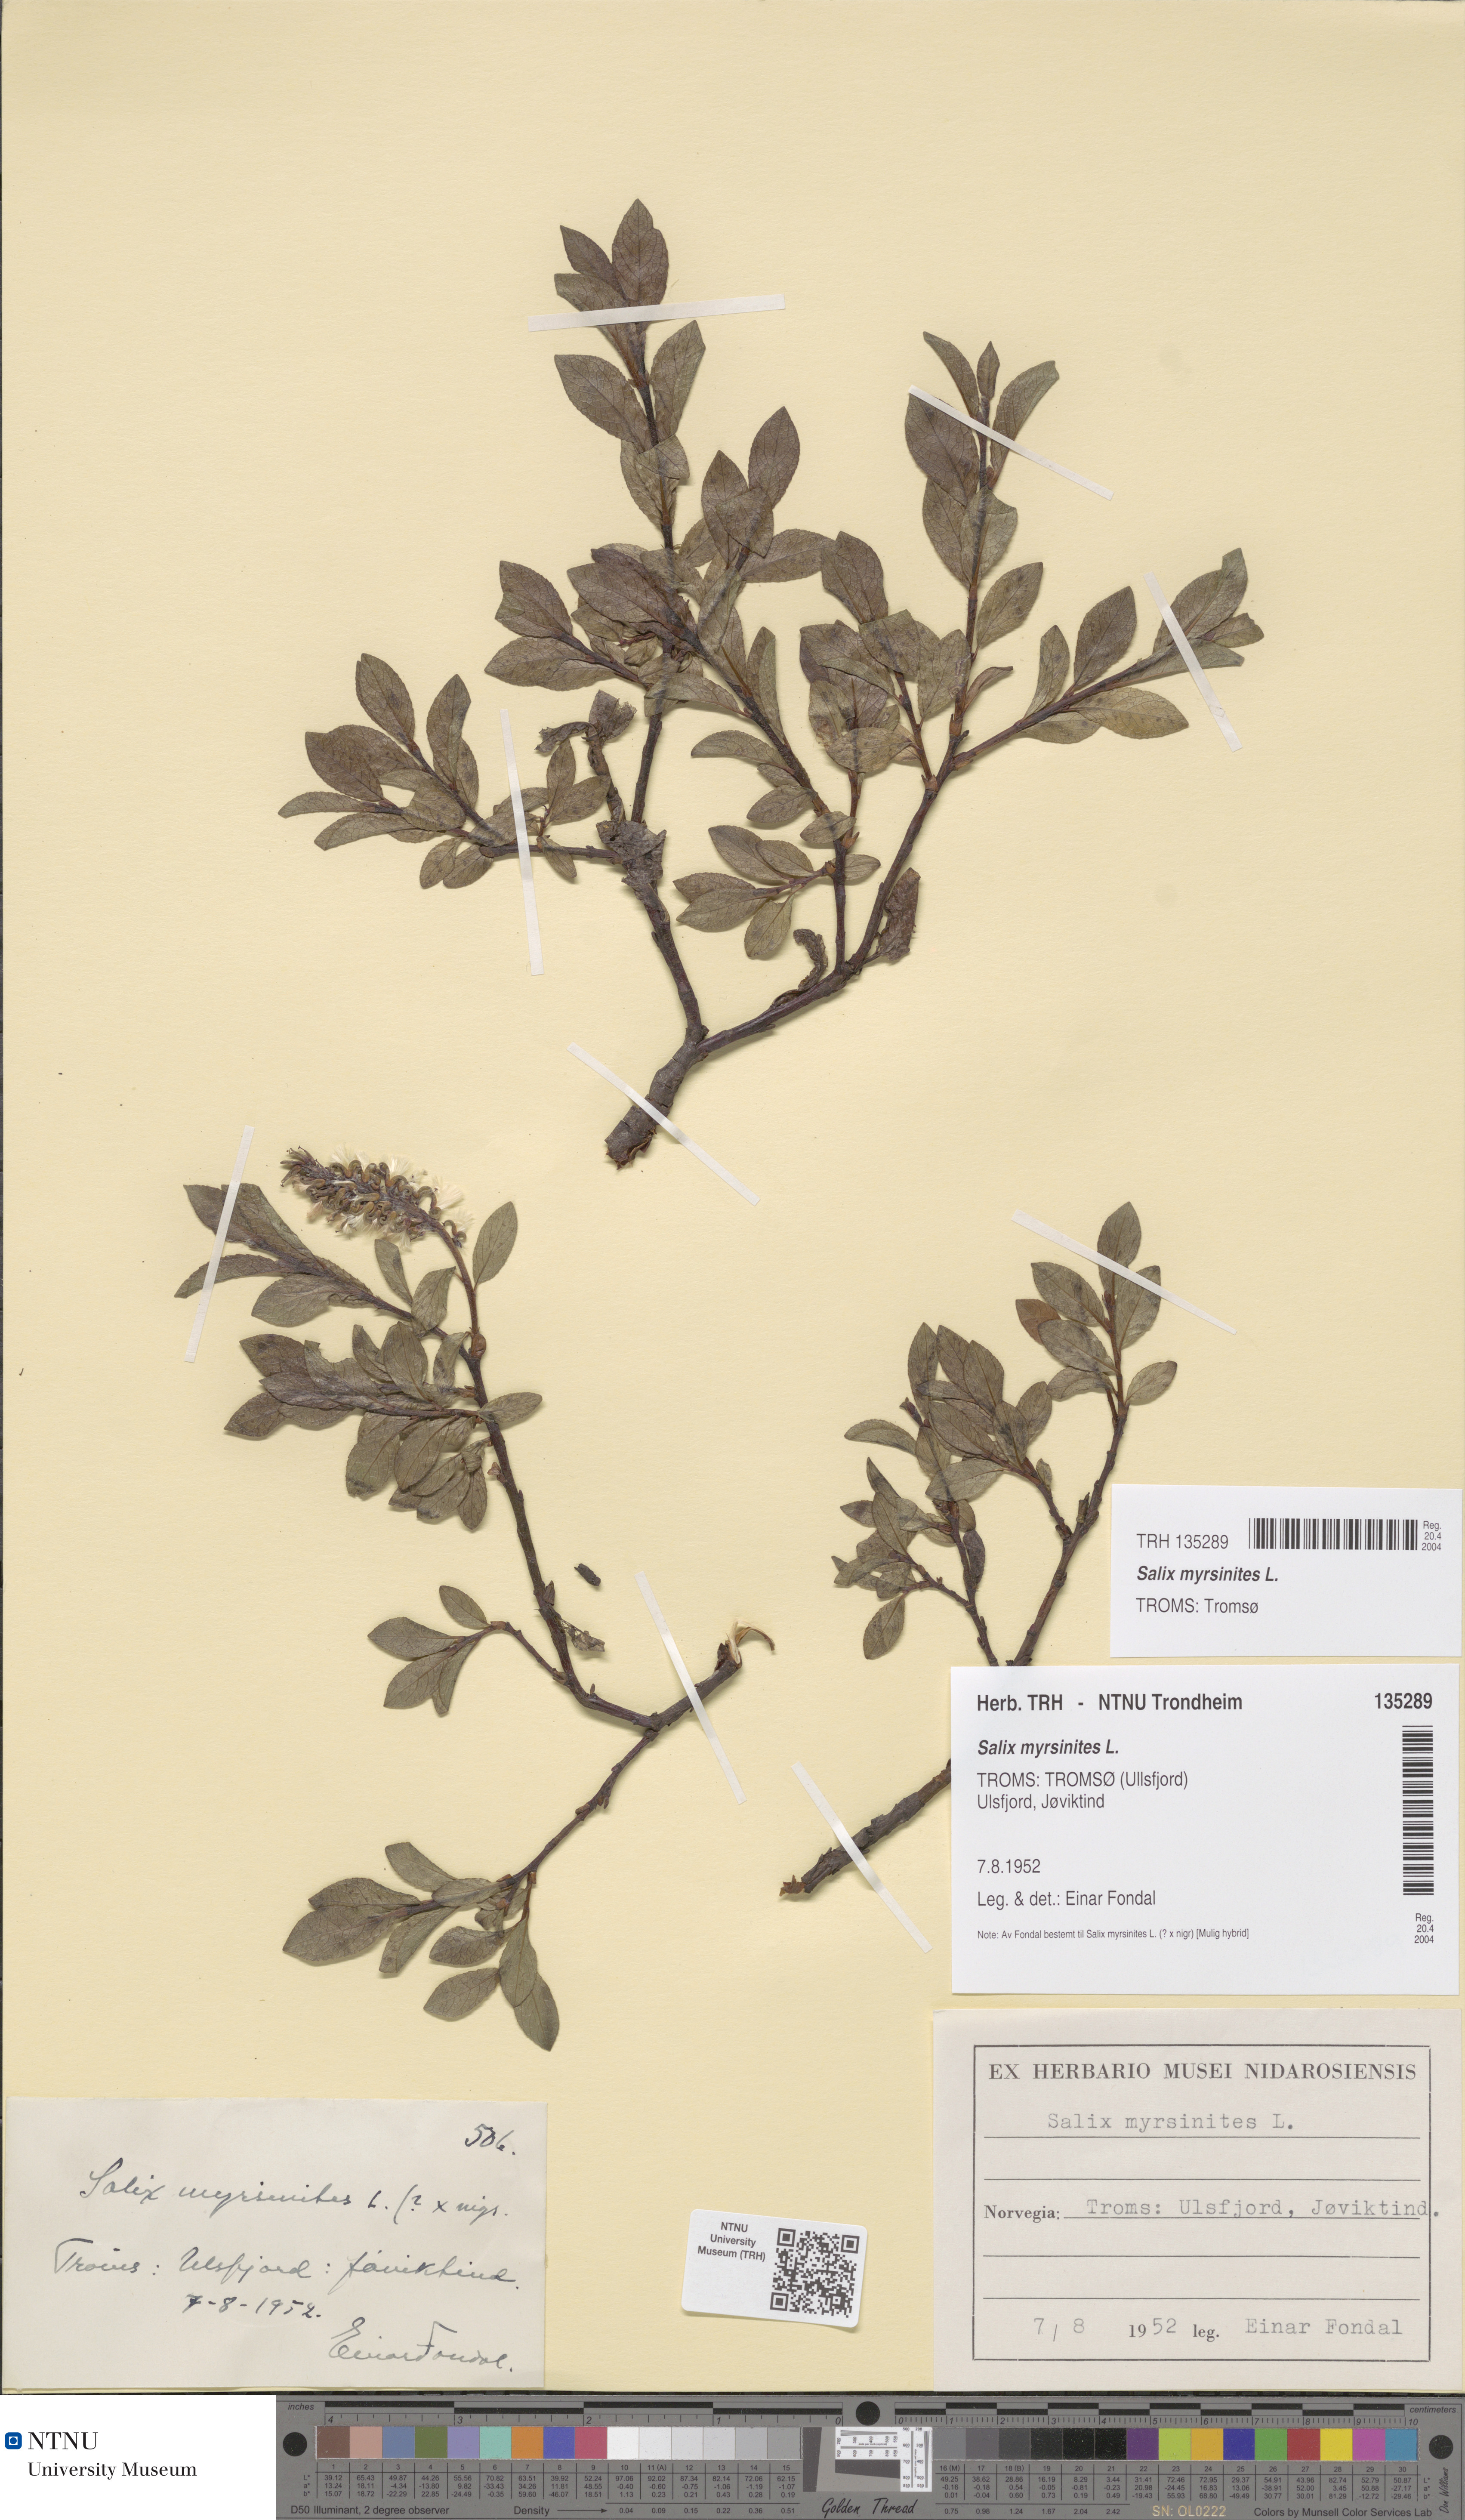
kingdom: Plantae
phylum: Tracheophyta
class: Magnoliopsida
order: Malpighiales
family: Salicaceae
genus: Salix
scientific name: Salix myrsinites
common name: Myrtle willow
